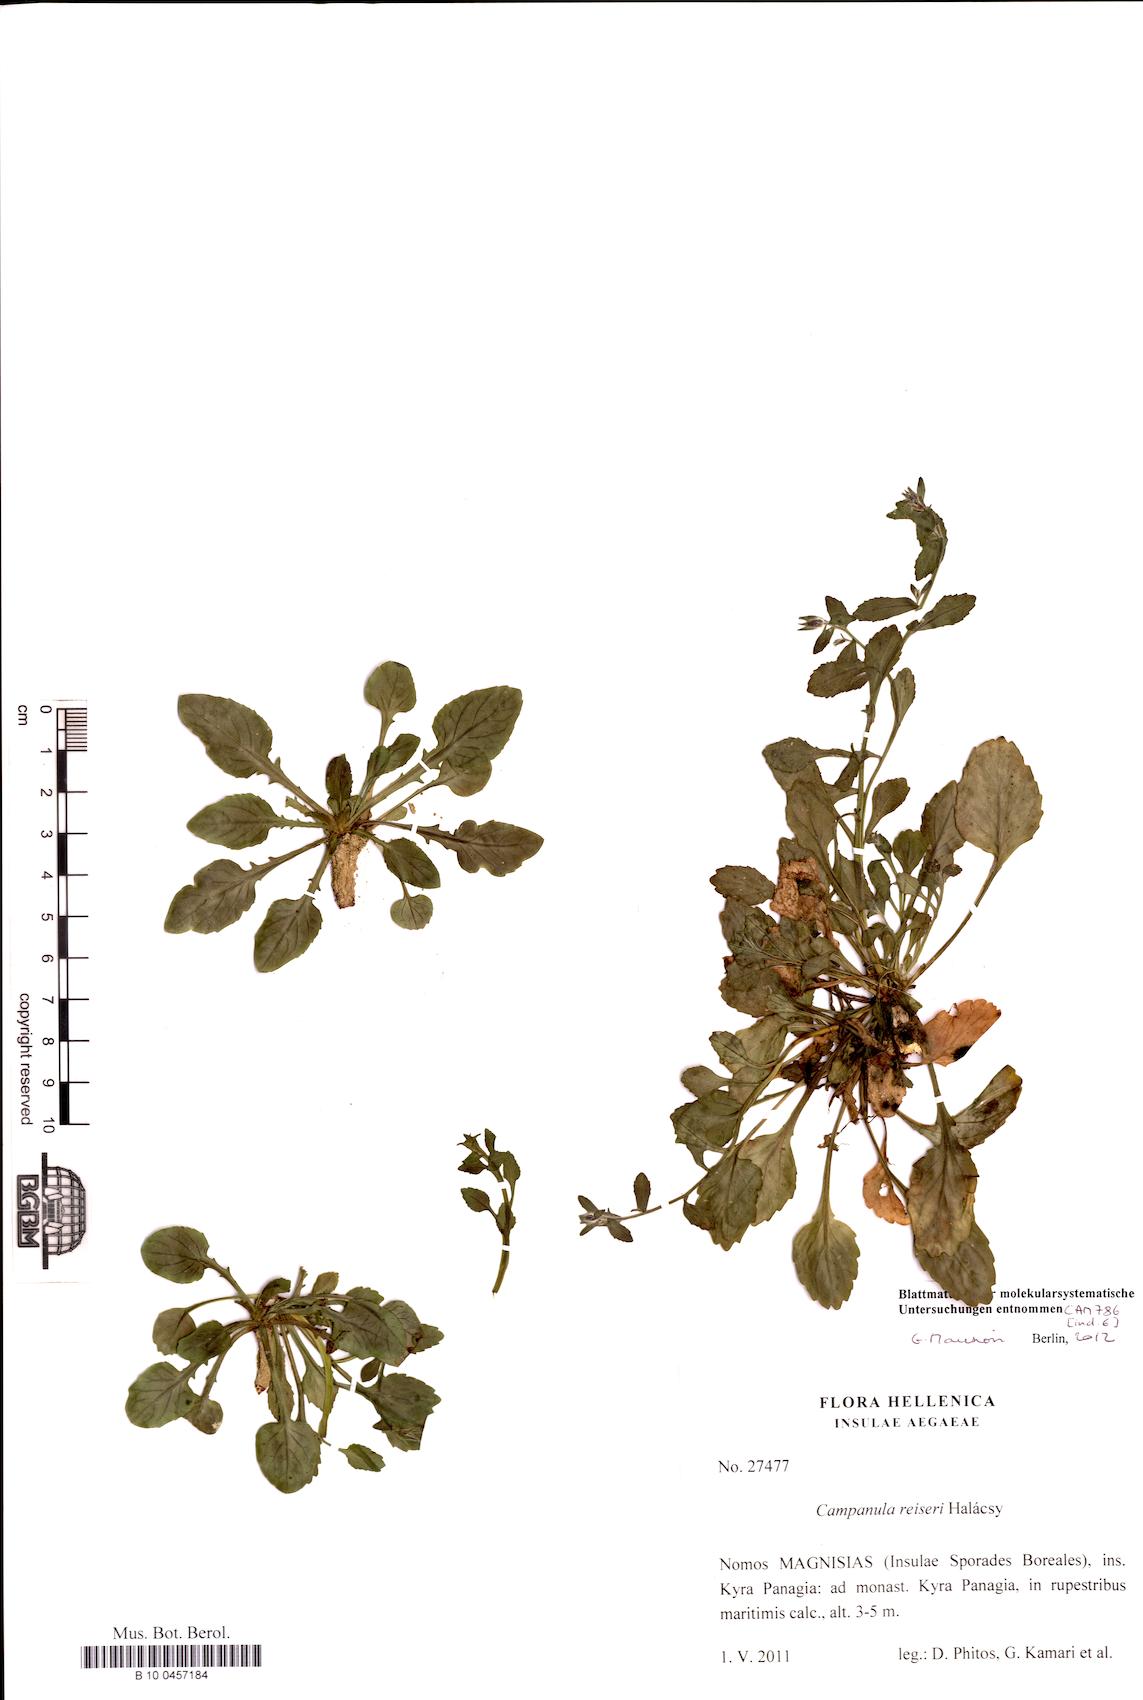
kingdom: Plantae
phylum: Tracheophyta
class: Magnoliopsida
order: Asterales
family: Campanulaceae
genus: Campanula
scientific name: Campanula reiseri
